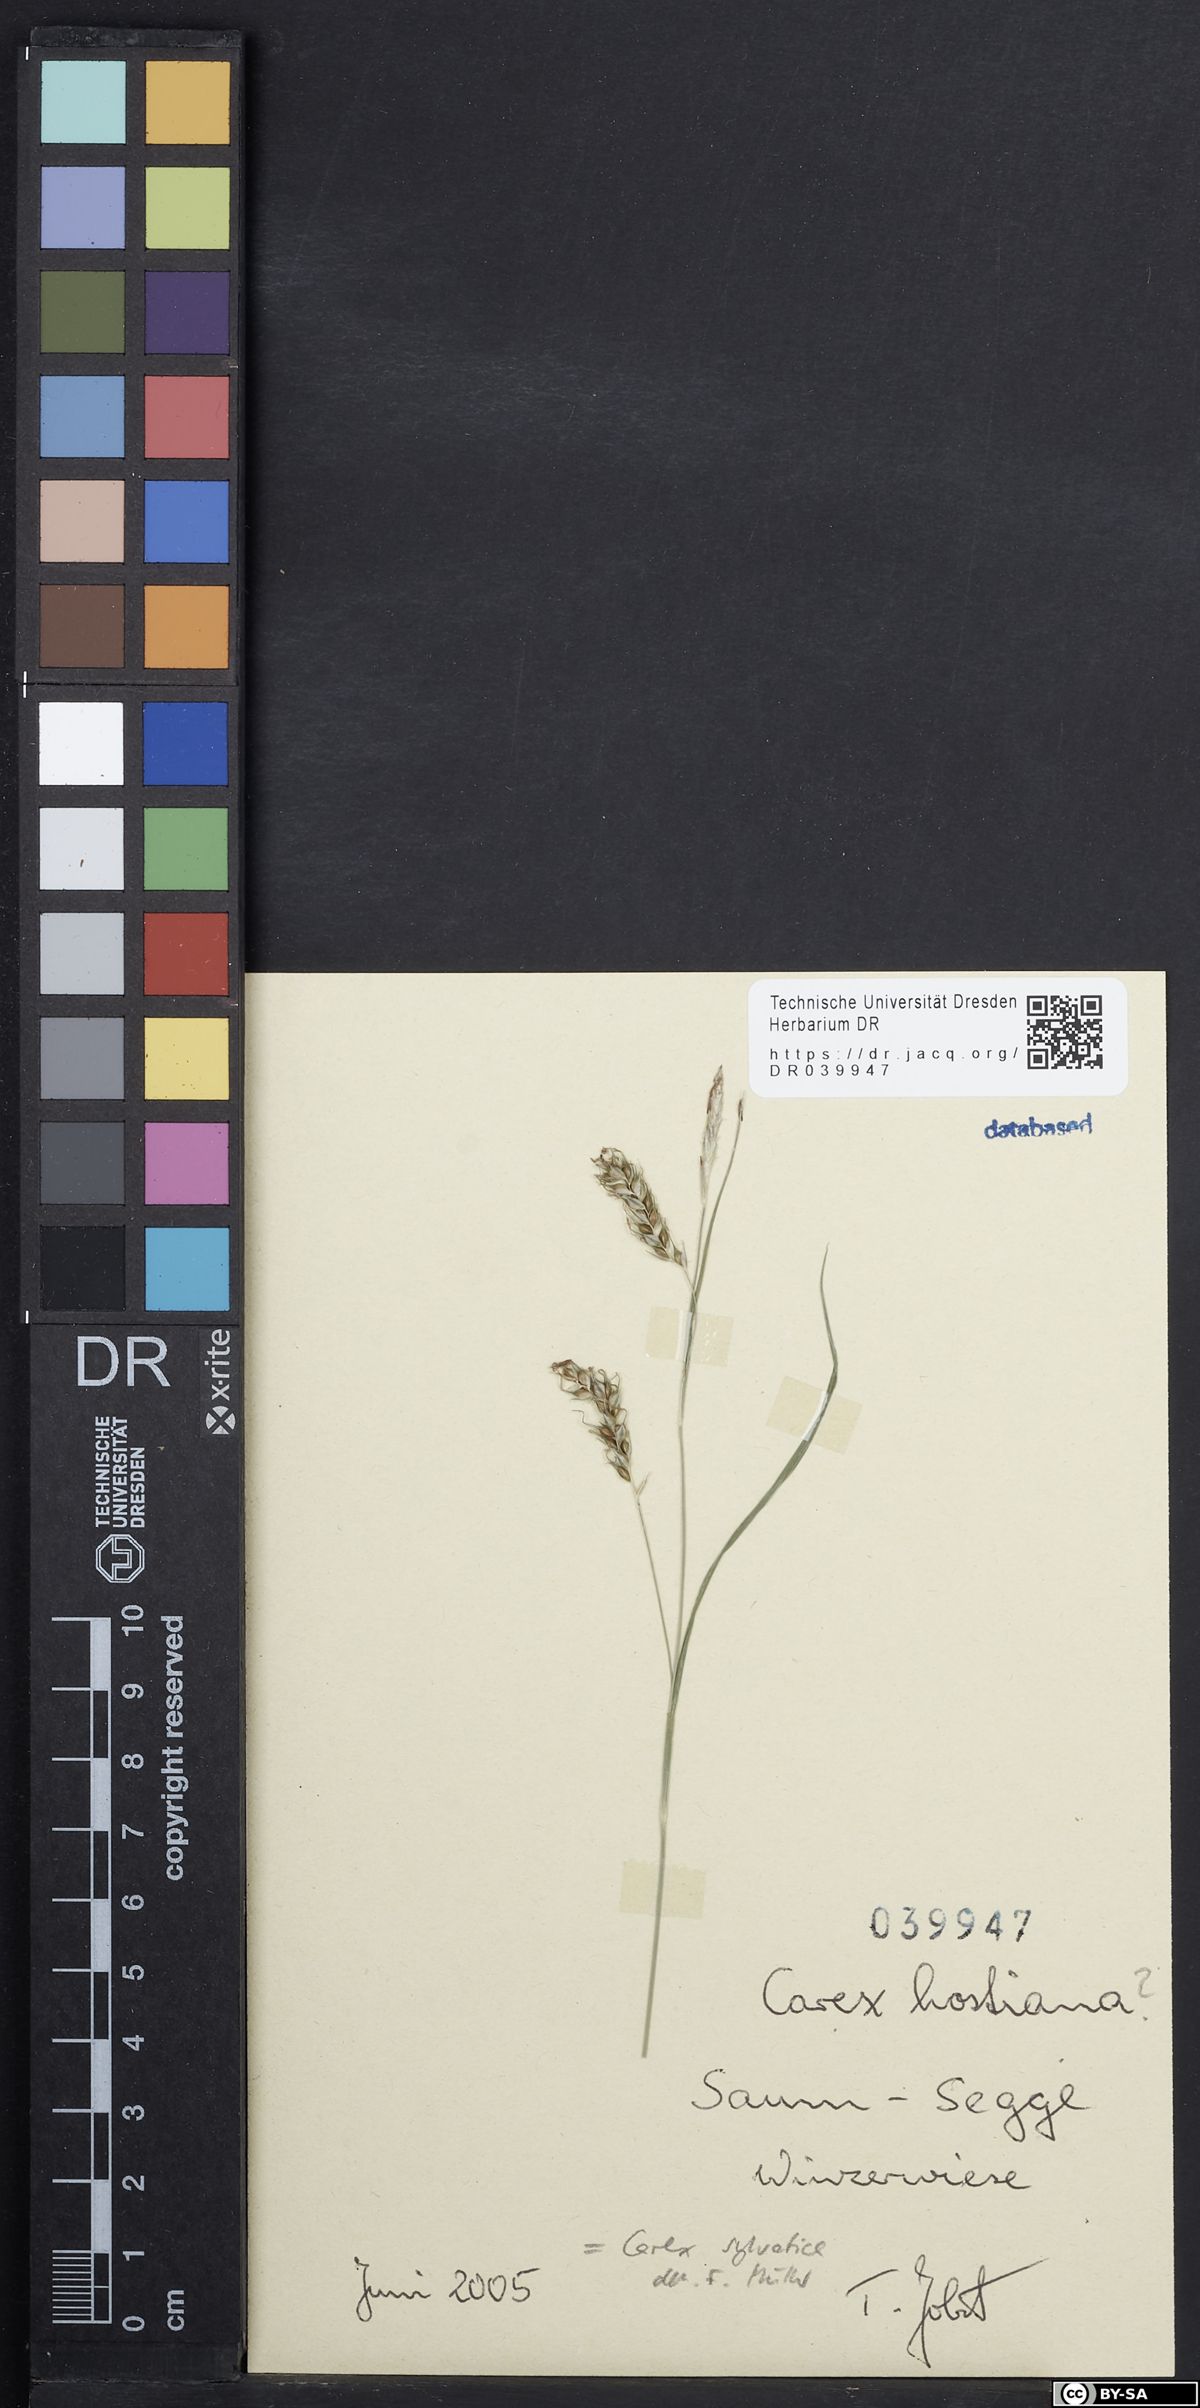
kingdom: Plantae
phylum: Tracheophyta
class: Liliopsida
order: Poales
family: Cyperaceae
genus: Carex
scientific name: Carex sylvatica
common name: Wood-sedge
